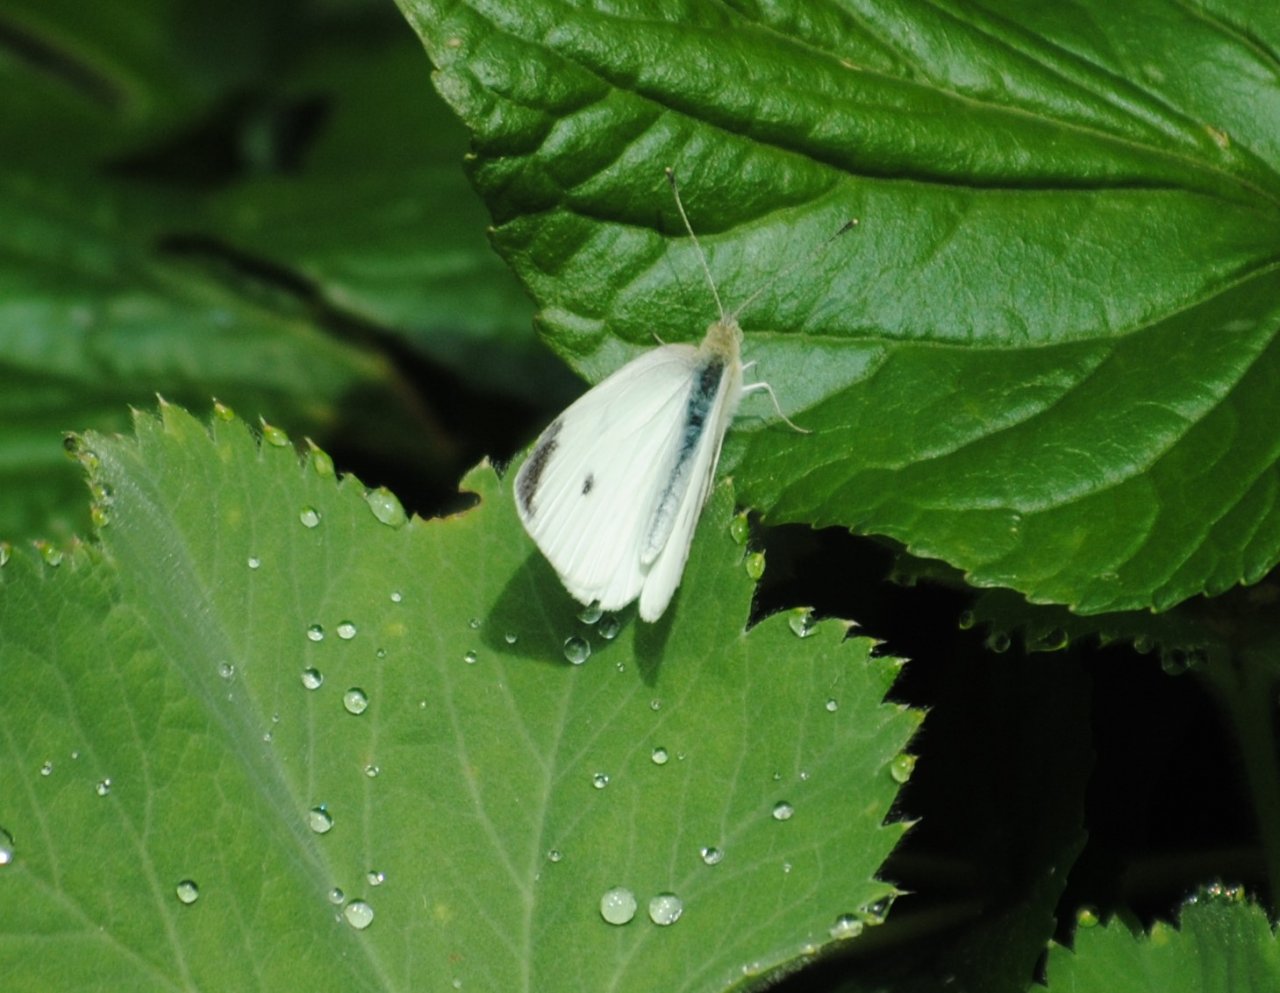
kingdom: Animalia
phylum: Arthropoda
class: Insecta
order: Lepidoptera
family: Pieridae
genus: Pieris
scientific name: Pieris rapae
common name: Cabbage White
